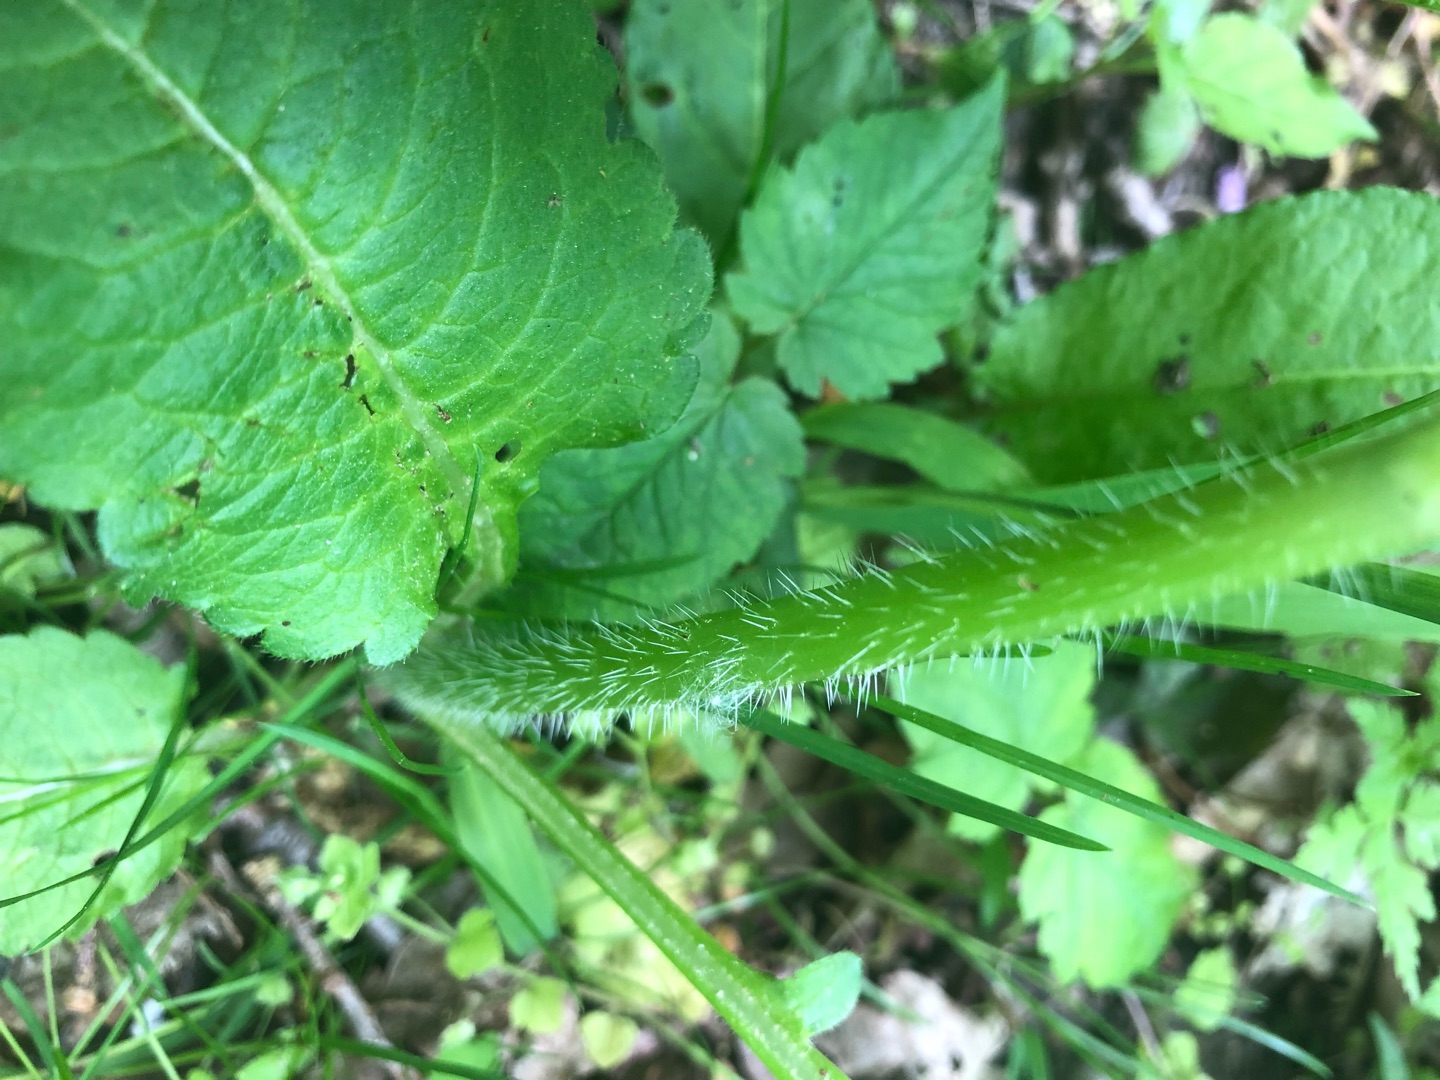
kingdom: Plantae
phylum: Tracheophyta
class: Magnoliopsida
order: Dipsacales
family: Caprifoliaceae
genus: Dipsacus
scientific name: Dipsacus pilosus
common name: Håret kartebolle
